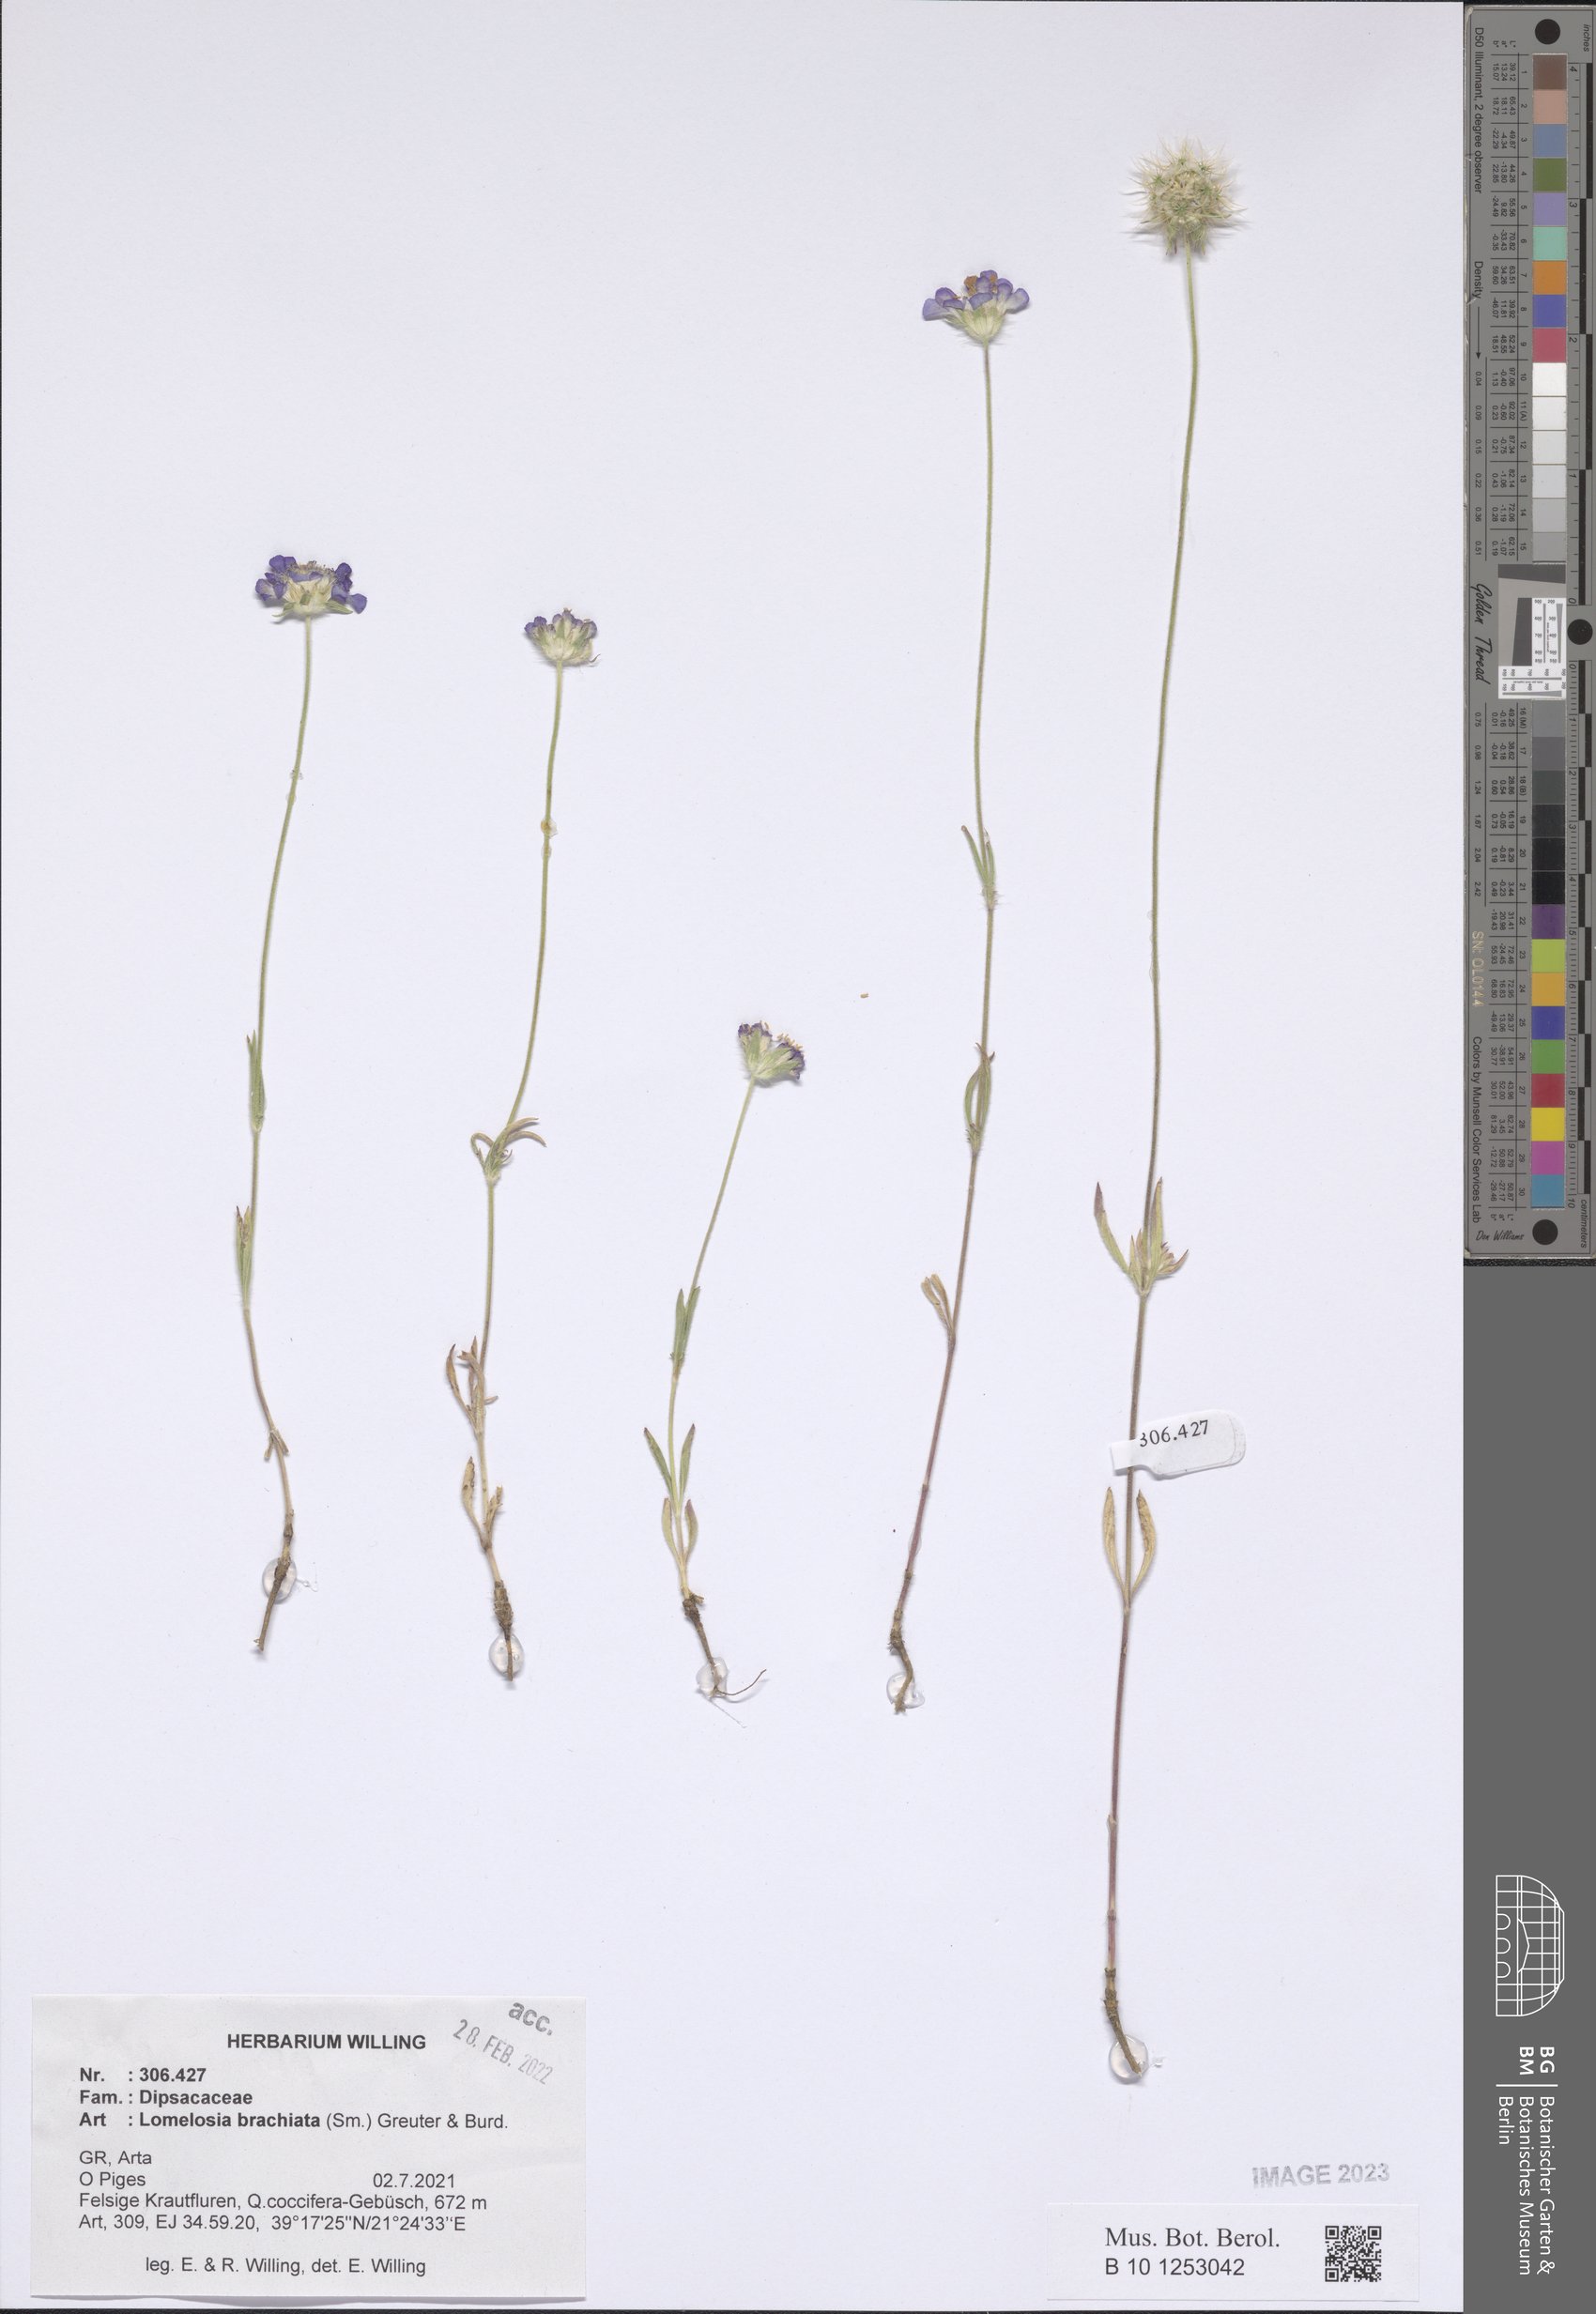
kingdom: Plantae
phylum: Tracheophyta
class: Magnoliopsida
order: Dipsacales
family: Caprifoliaceae
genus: Lomelosia
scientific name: Lomelosia brachiata
